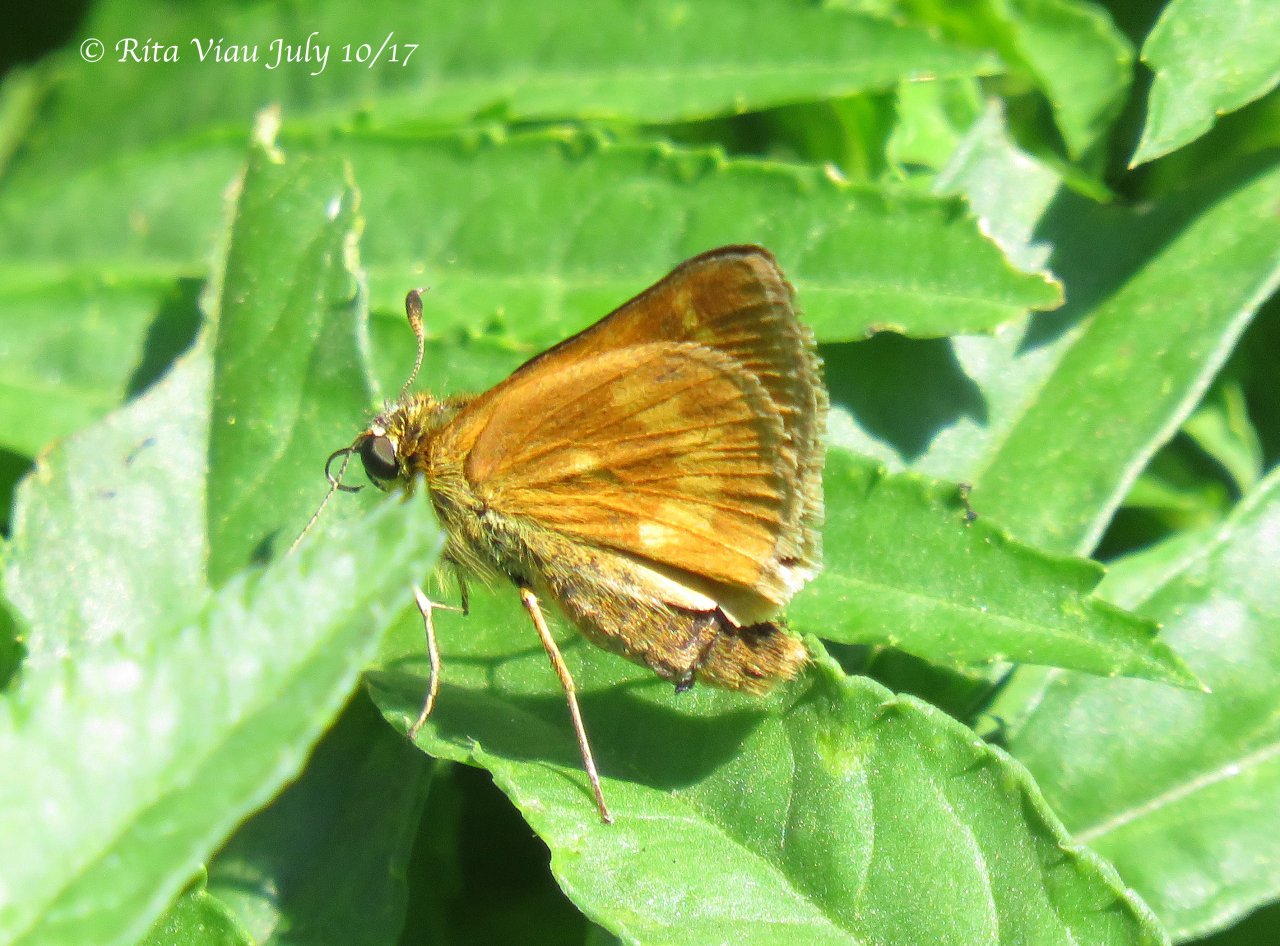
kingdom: Animalia
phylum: Arthropoda
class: Insecta
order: Lepidoptera
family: Hesperiidae
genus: Polites
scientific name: Polites
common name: Long Dash Skipper
